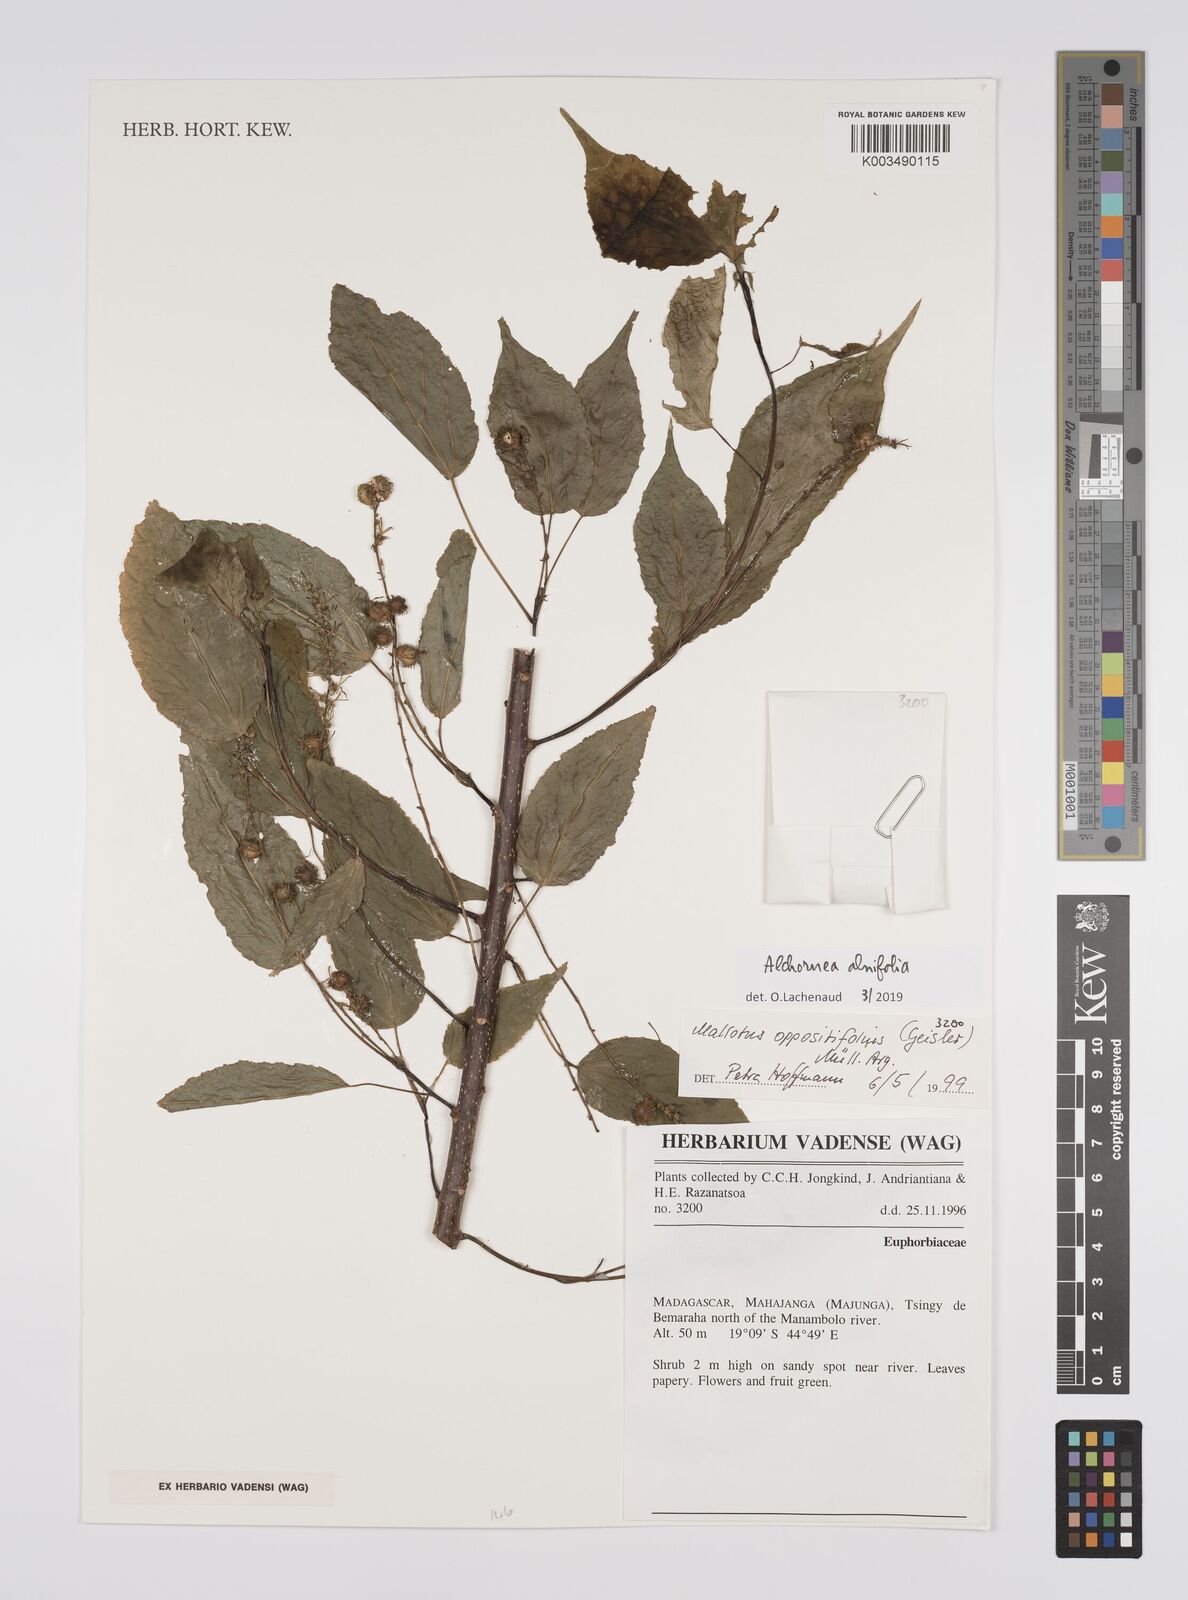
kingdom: Plantae
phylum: Tracheophyta
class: Magnoliopsida
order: Malpighiales
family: Euphorbiaceae
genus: Alchornea
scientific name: Alchornea alnifolia
